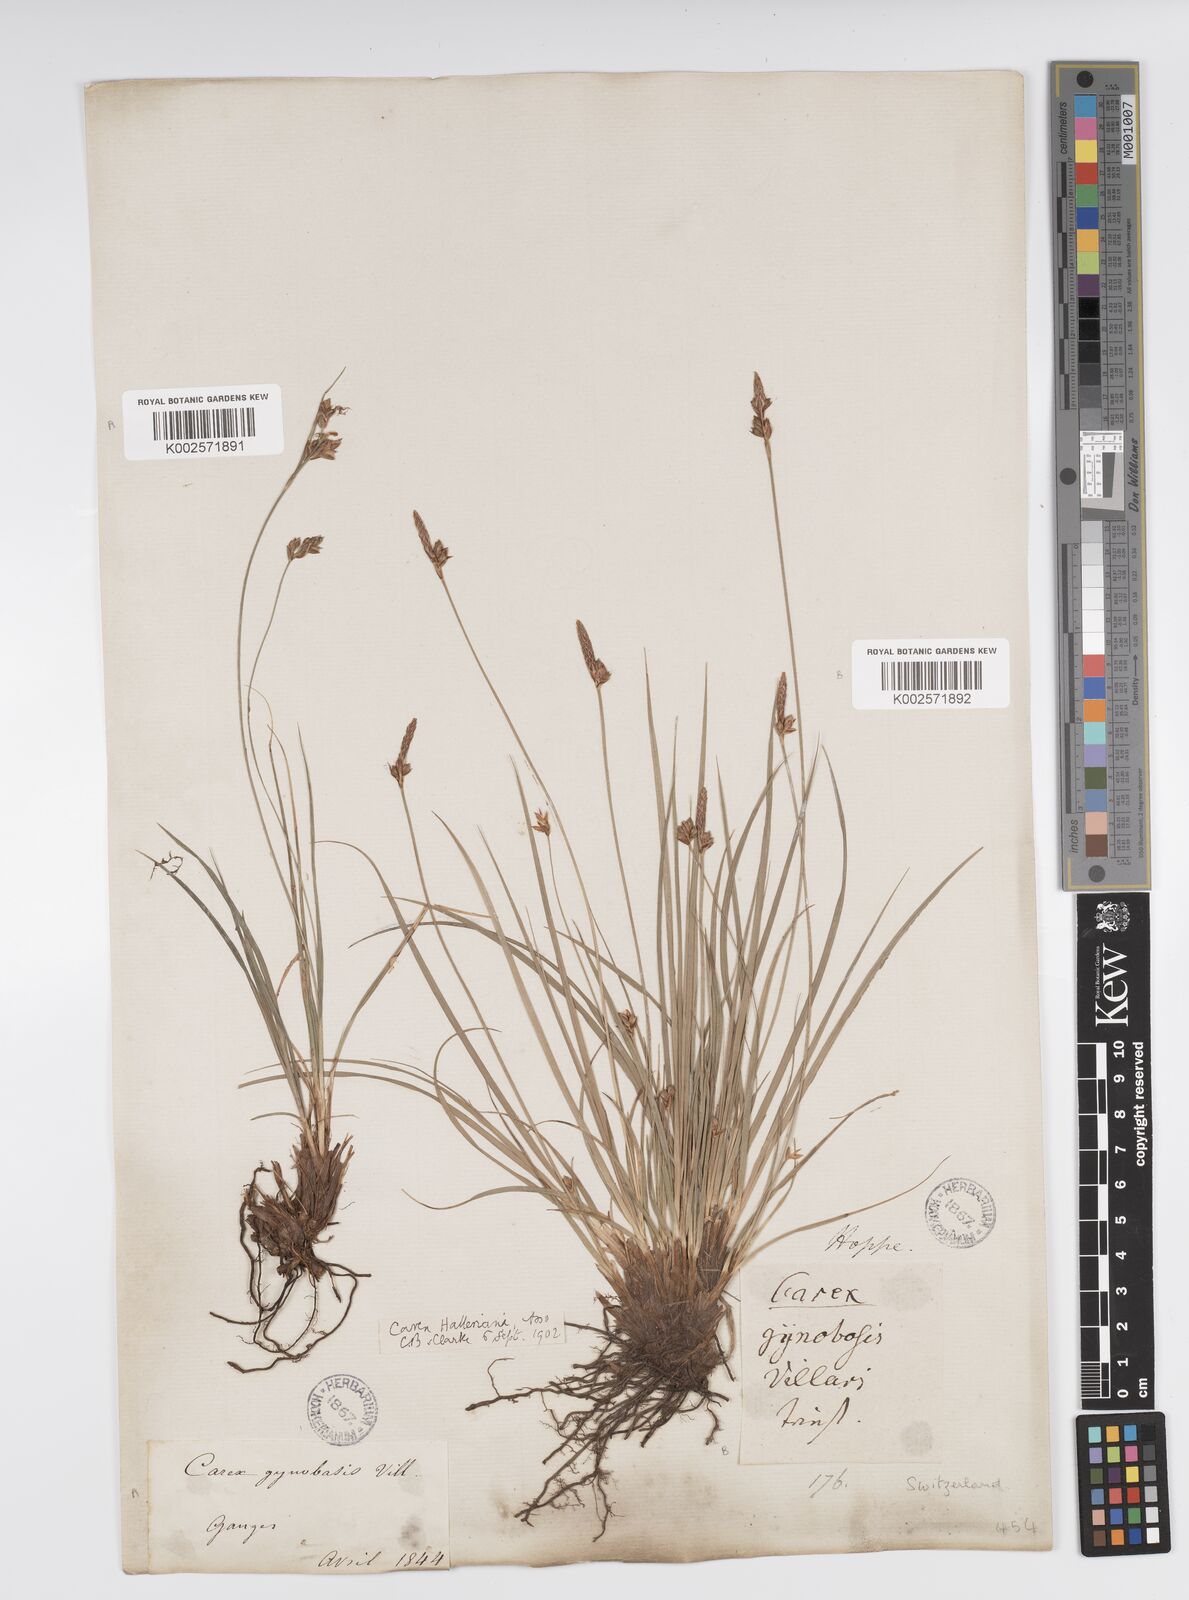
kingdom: Plantae
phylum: Tracheophyta
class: Liliopsida
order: Poales
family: Cyperaceae
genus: Carex
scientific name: Carex halleriana
